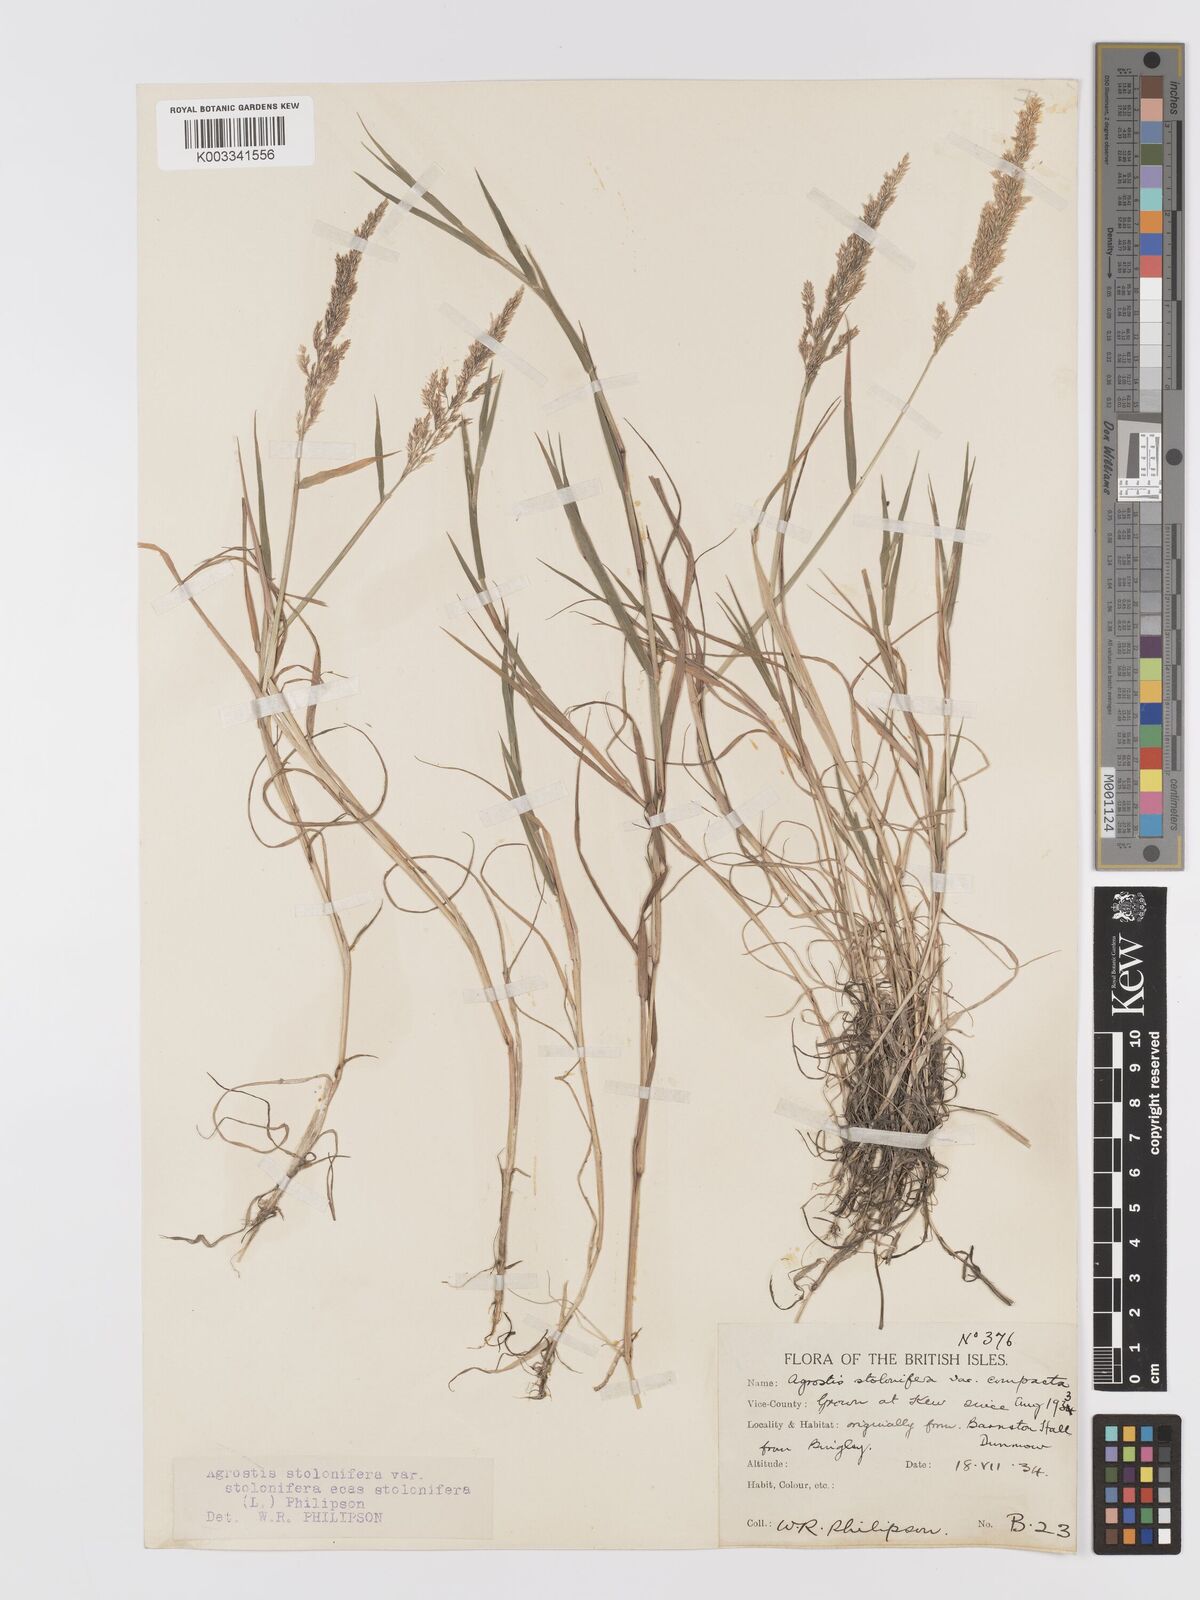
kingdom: Plantae
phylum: Tracheophyta
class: Liliopsida
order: Poales
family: Poaceae
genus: Agrostis
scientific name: Agrostis stolonifera
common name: Creeping bentgrass
